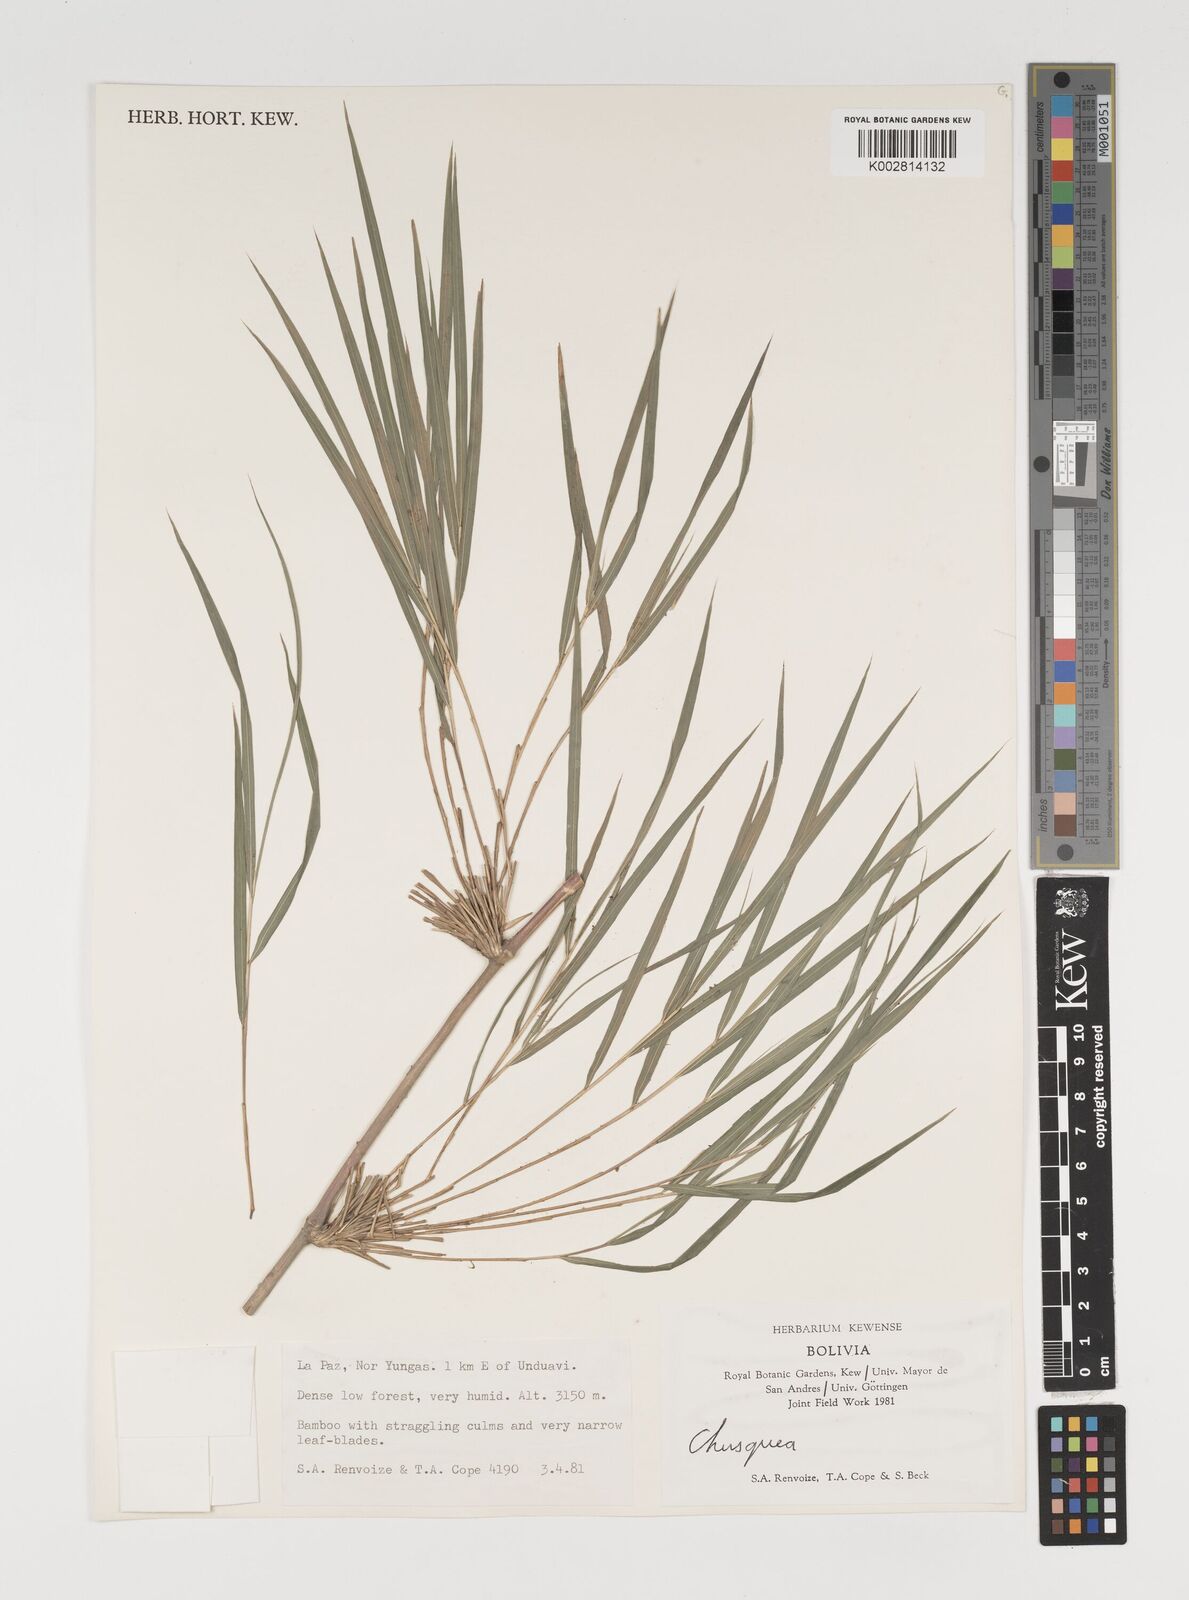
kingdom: Plantae
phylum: Tracheophyta
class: Liliopsida
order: Poales
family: Poaceae
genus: Chusquea
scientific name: Chusquea
